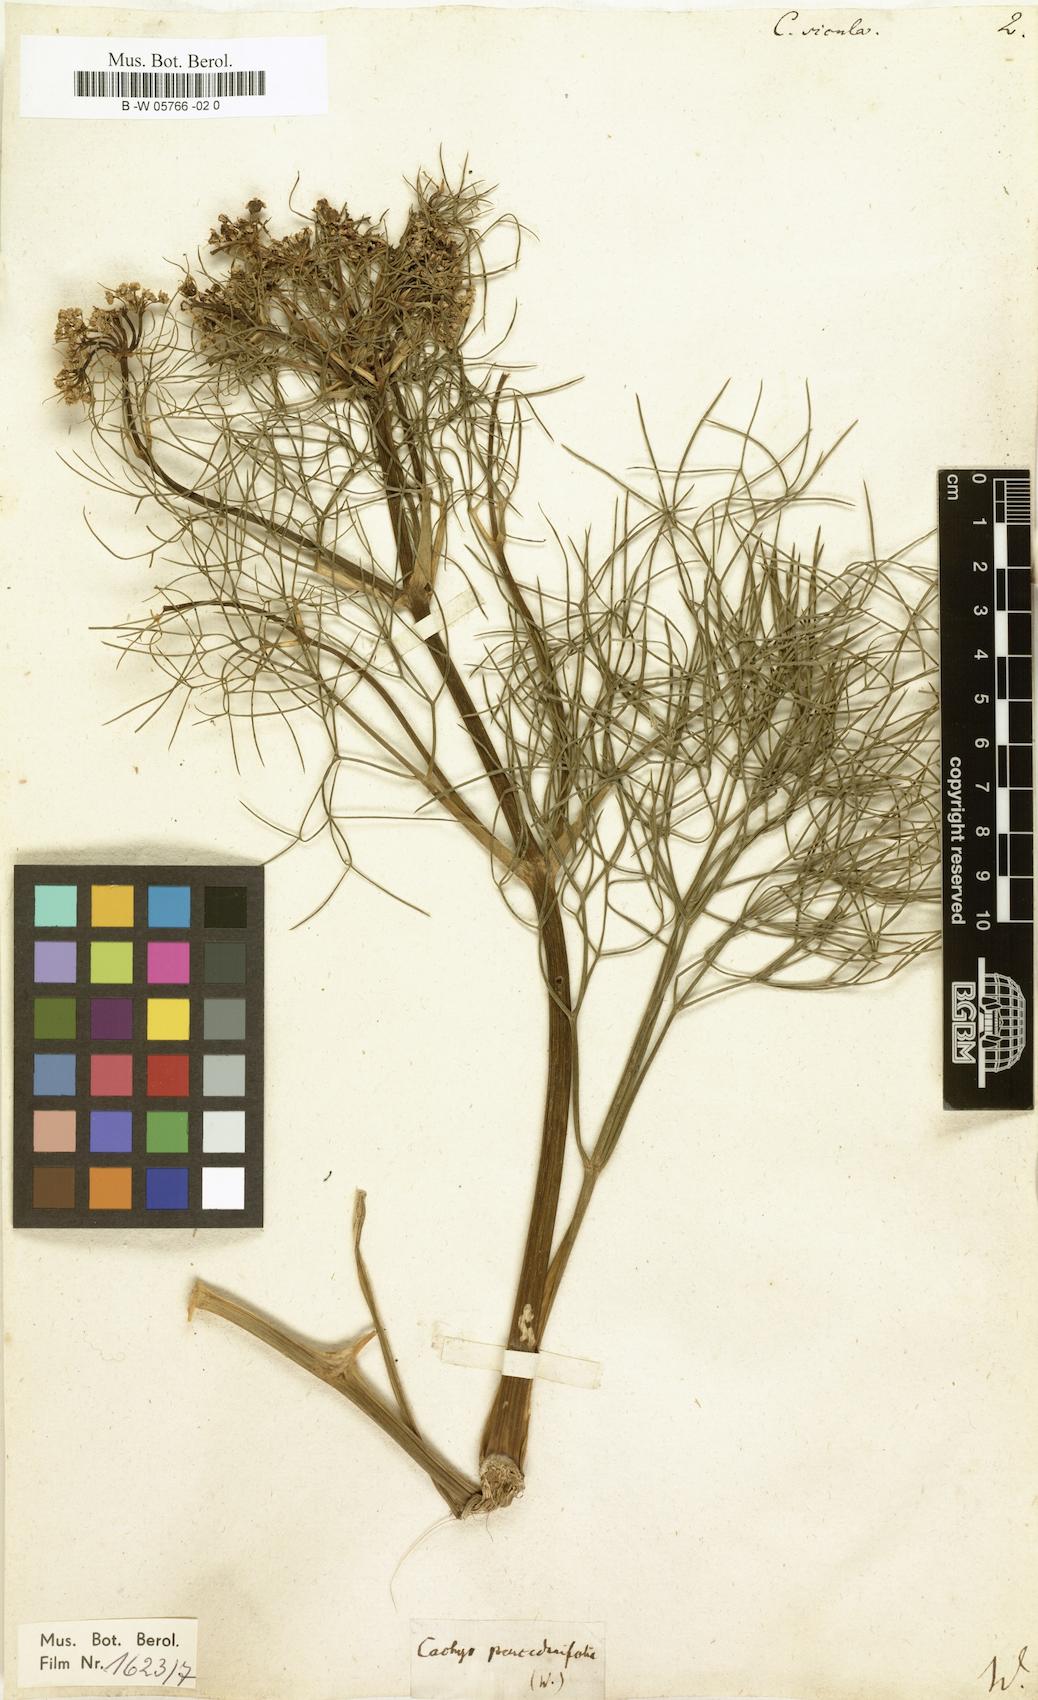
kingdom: Plantae
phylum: Tracheophyta
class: Magnoliopsida
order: Apiales
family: Apiaceae
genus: Cachrys
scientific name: Cachrys sicula
